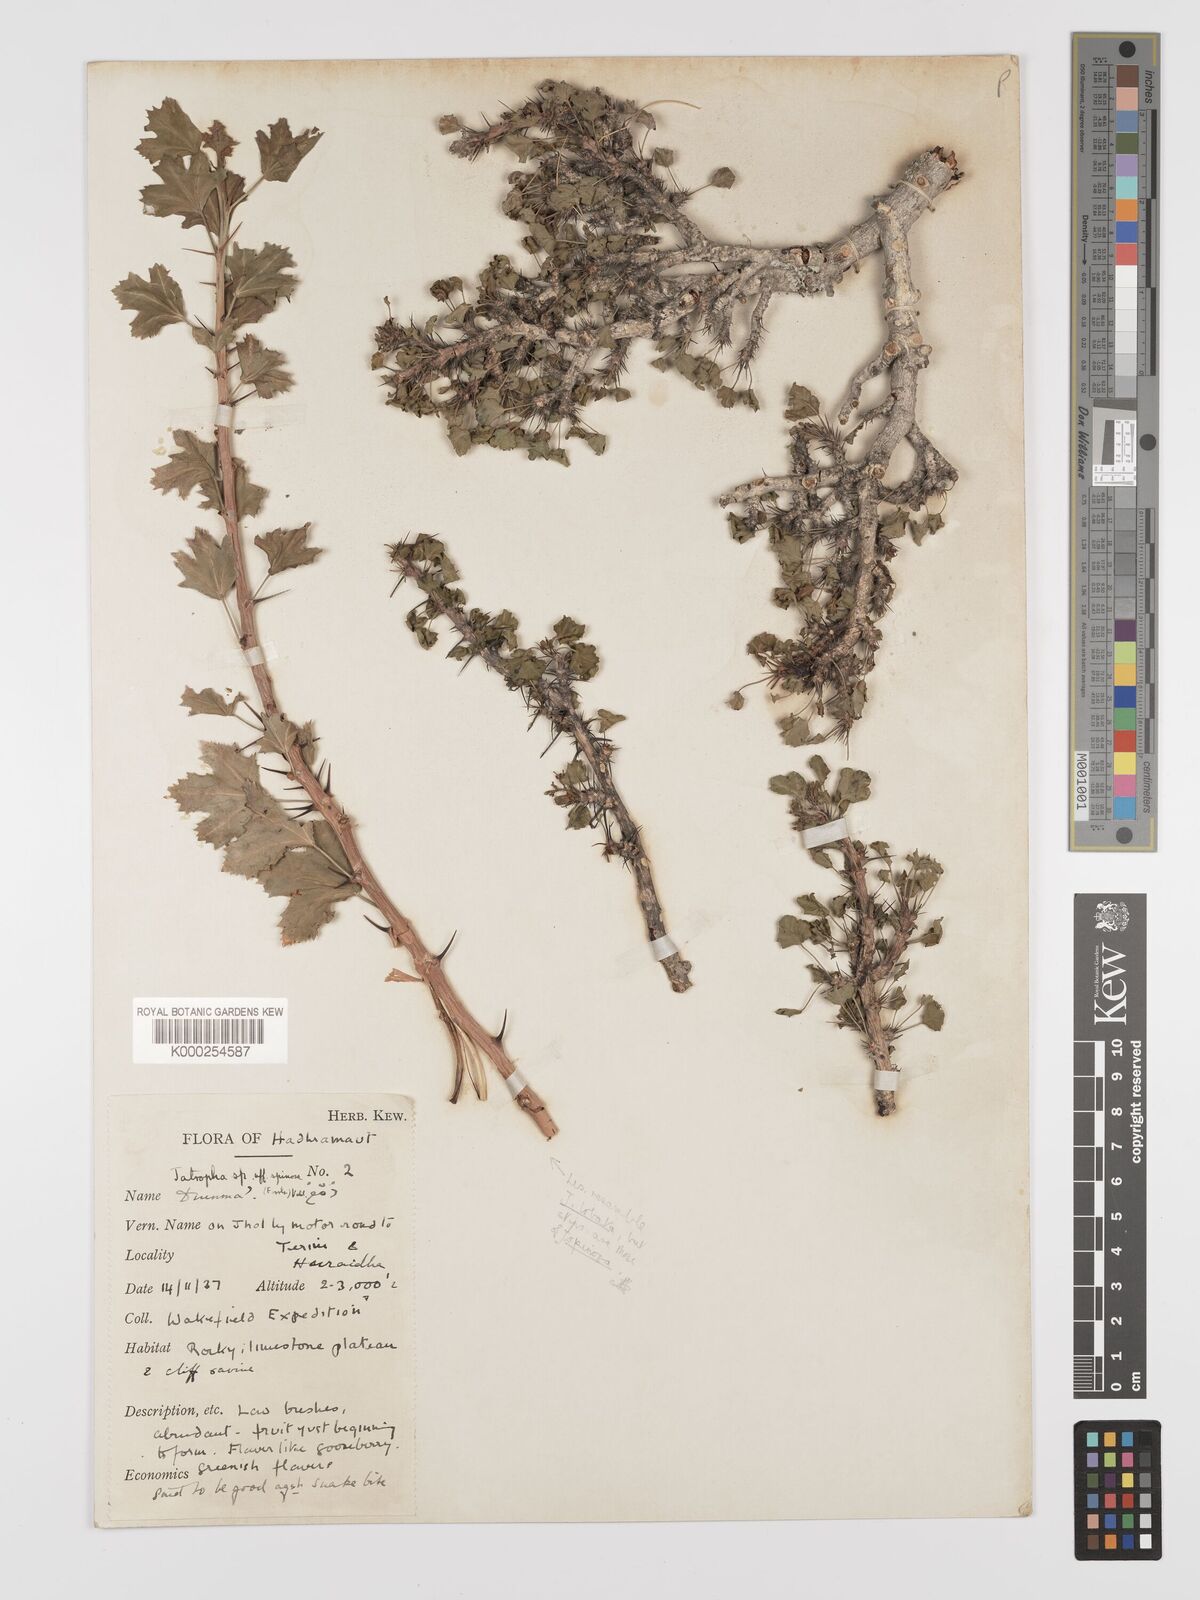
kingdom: Plantae
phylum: Tracheophyta
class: Magnoliopsida
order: Malpighiales
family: Euphorbiaceae
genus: Jatropha
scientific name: Jatropha spinosa
